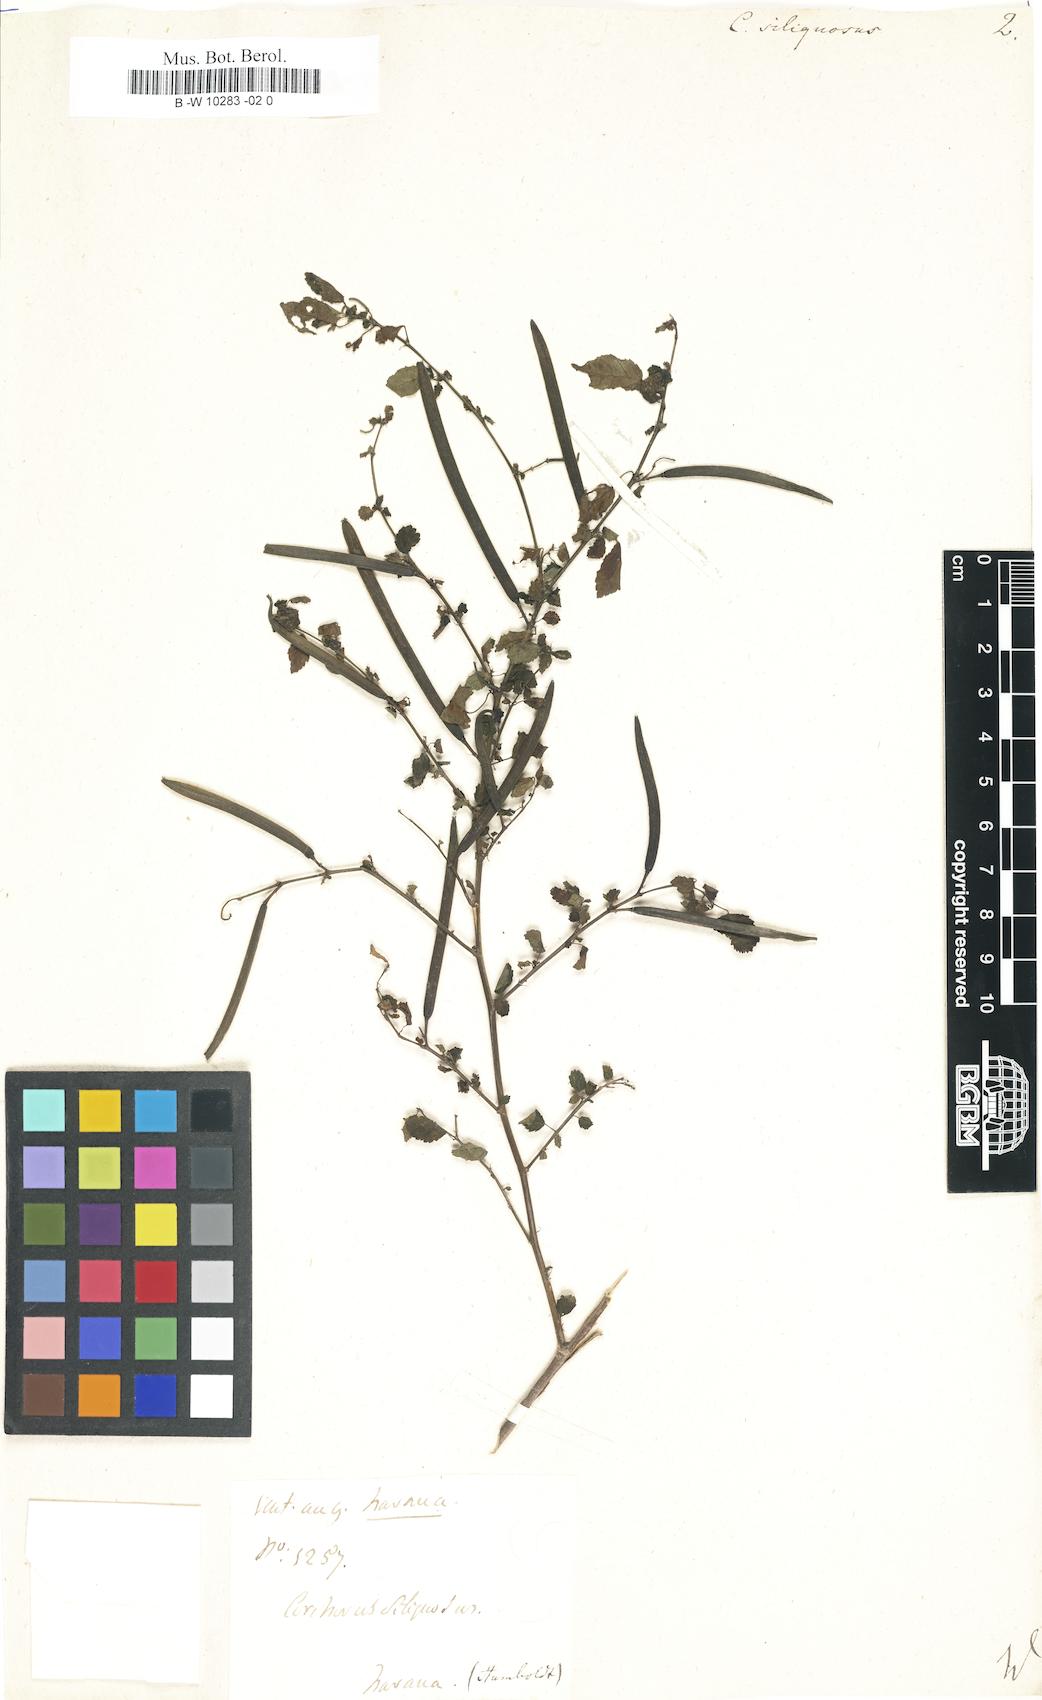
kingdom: Plantae
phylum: Tracheophyta
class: Magnoliopsida
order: Malvales
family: Malvaceae
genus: Corchorus
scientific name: Corchorus siliquosus
